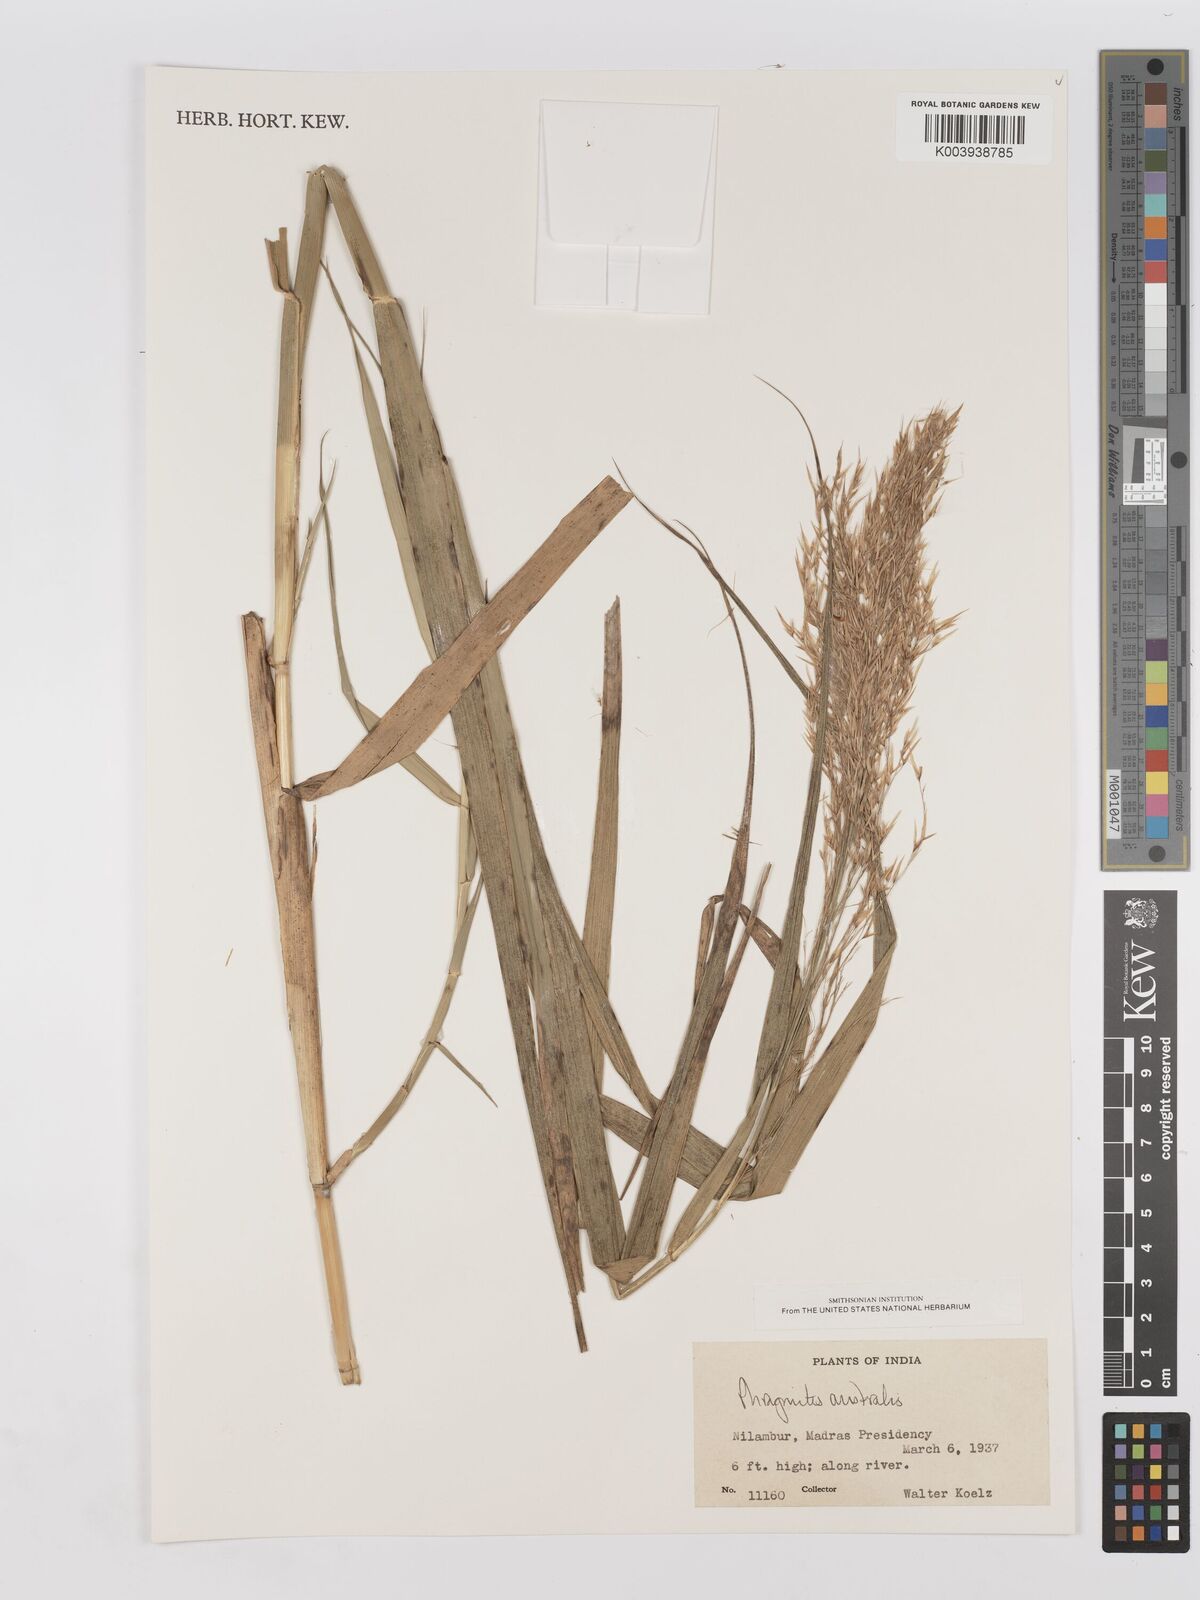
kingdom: Plantae
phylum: Tracheophyta
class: Liliopsida
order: Poales
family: Poaceae
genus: Phragmites
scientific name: Phragmites australis
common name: Common reed
